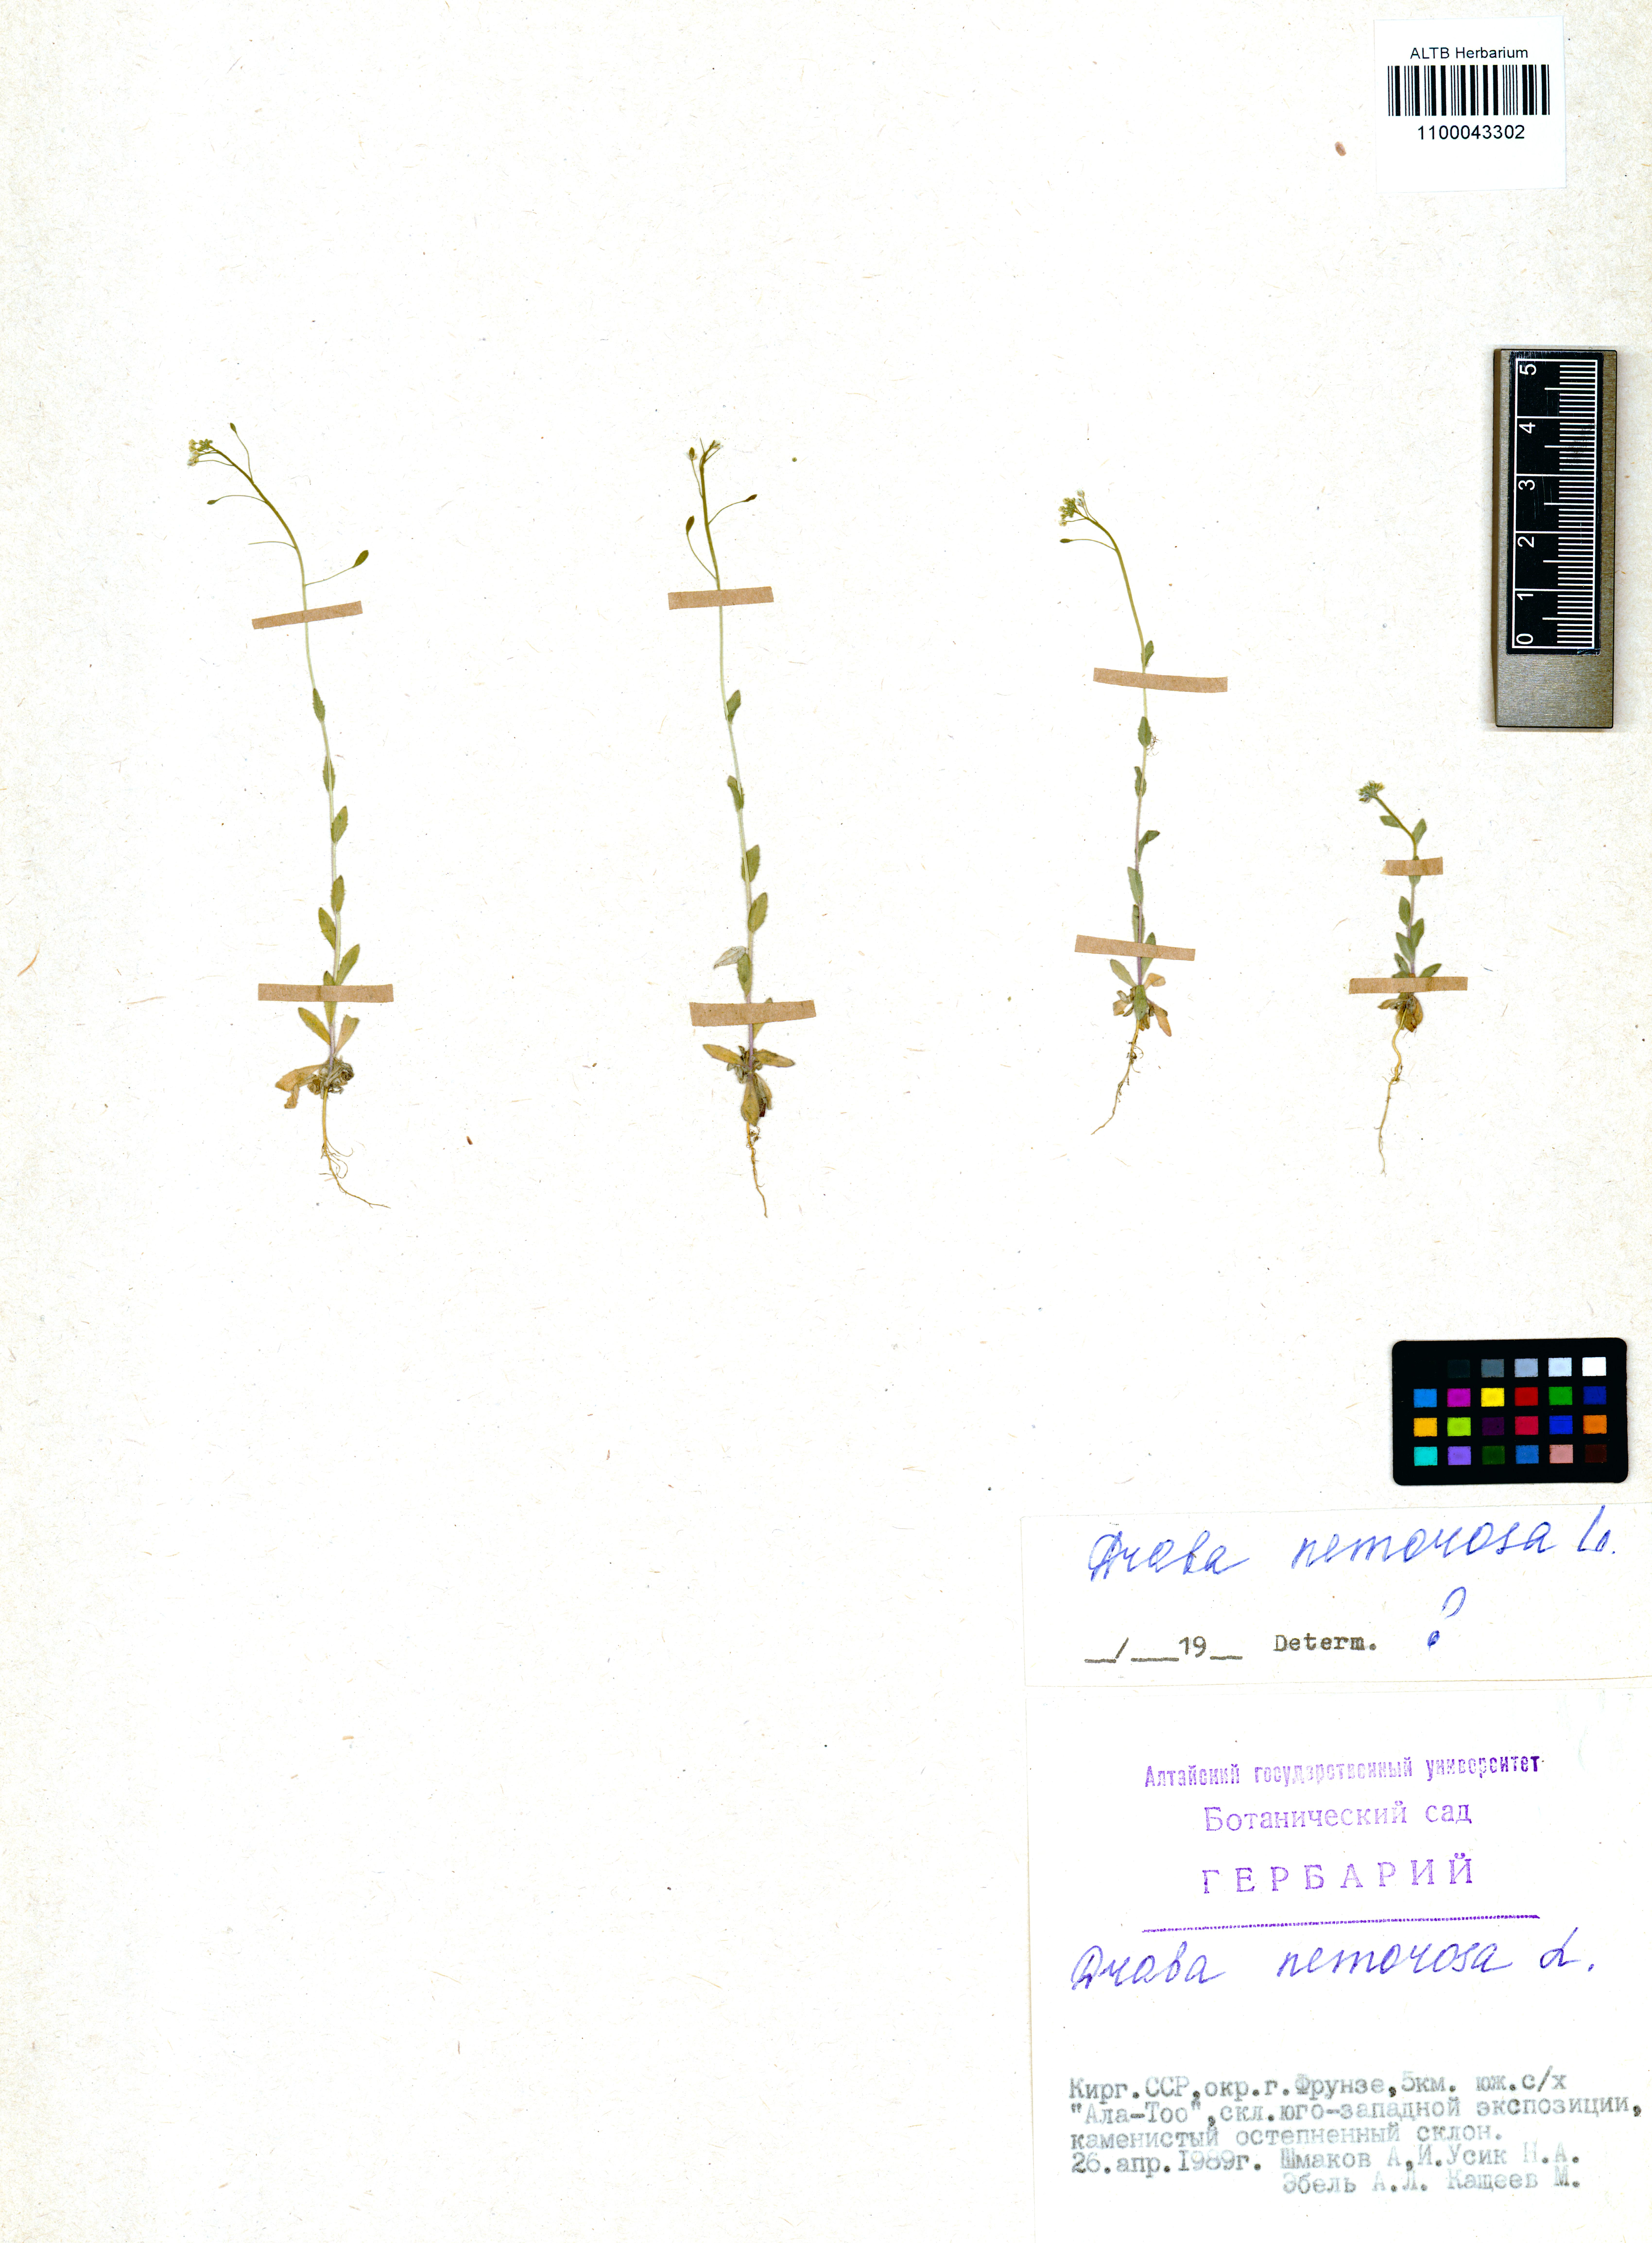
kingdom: Plantae
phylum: Tracheophyta
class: Magnoliopsida
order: Brassicales
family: Brassicaceae
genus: Draba
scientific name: Draba nemorosa
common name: Wood whitlow-grass
